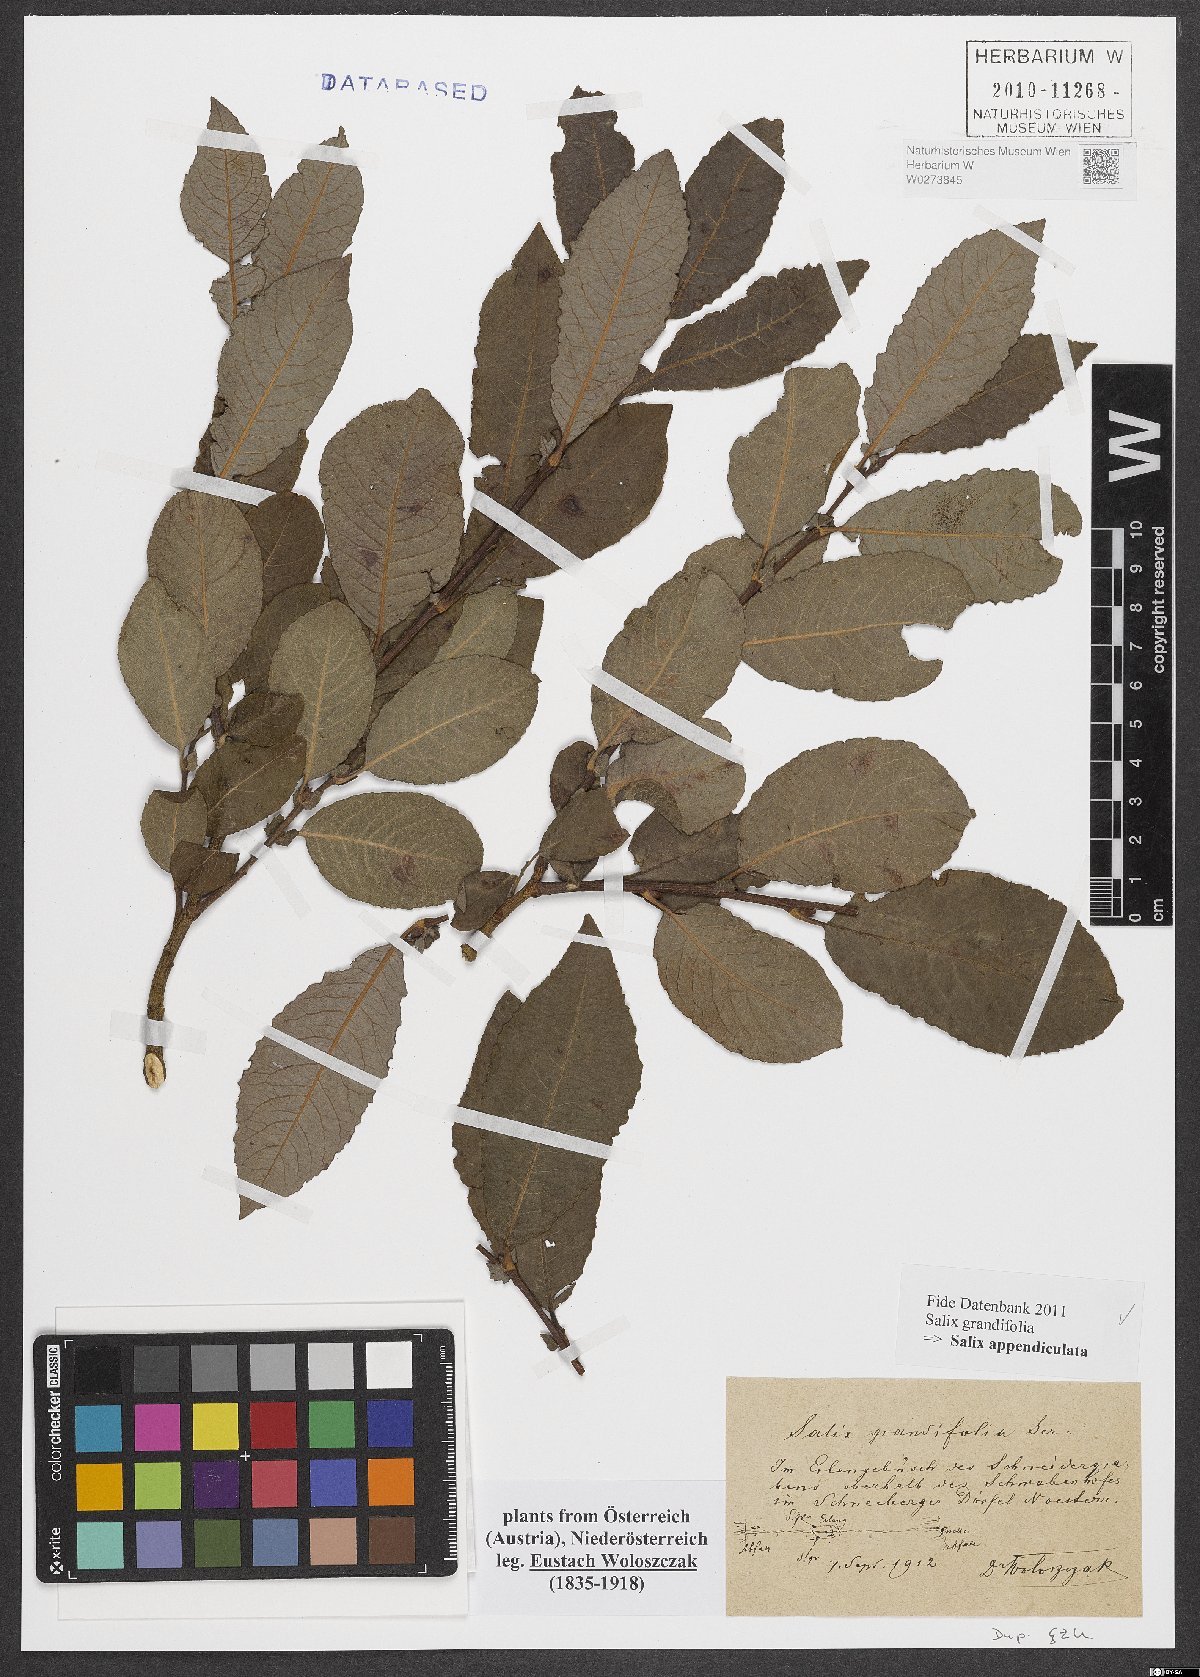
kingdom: Plantae
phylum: Tracheophyta
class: Magnoliopsida
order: Malpighiales
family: Salicaceae
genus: Salix
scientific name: Salix appendiculata
